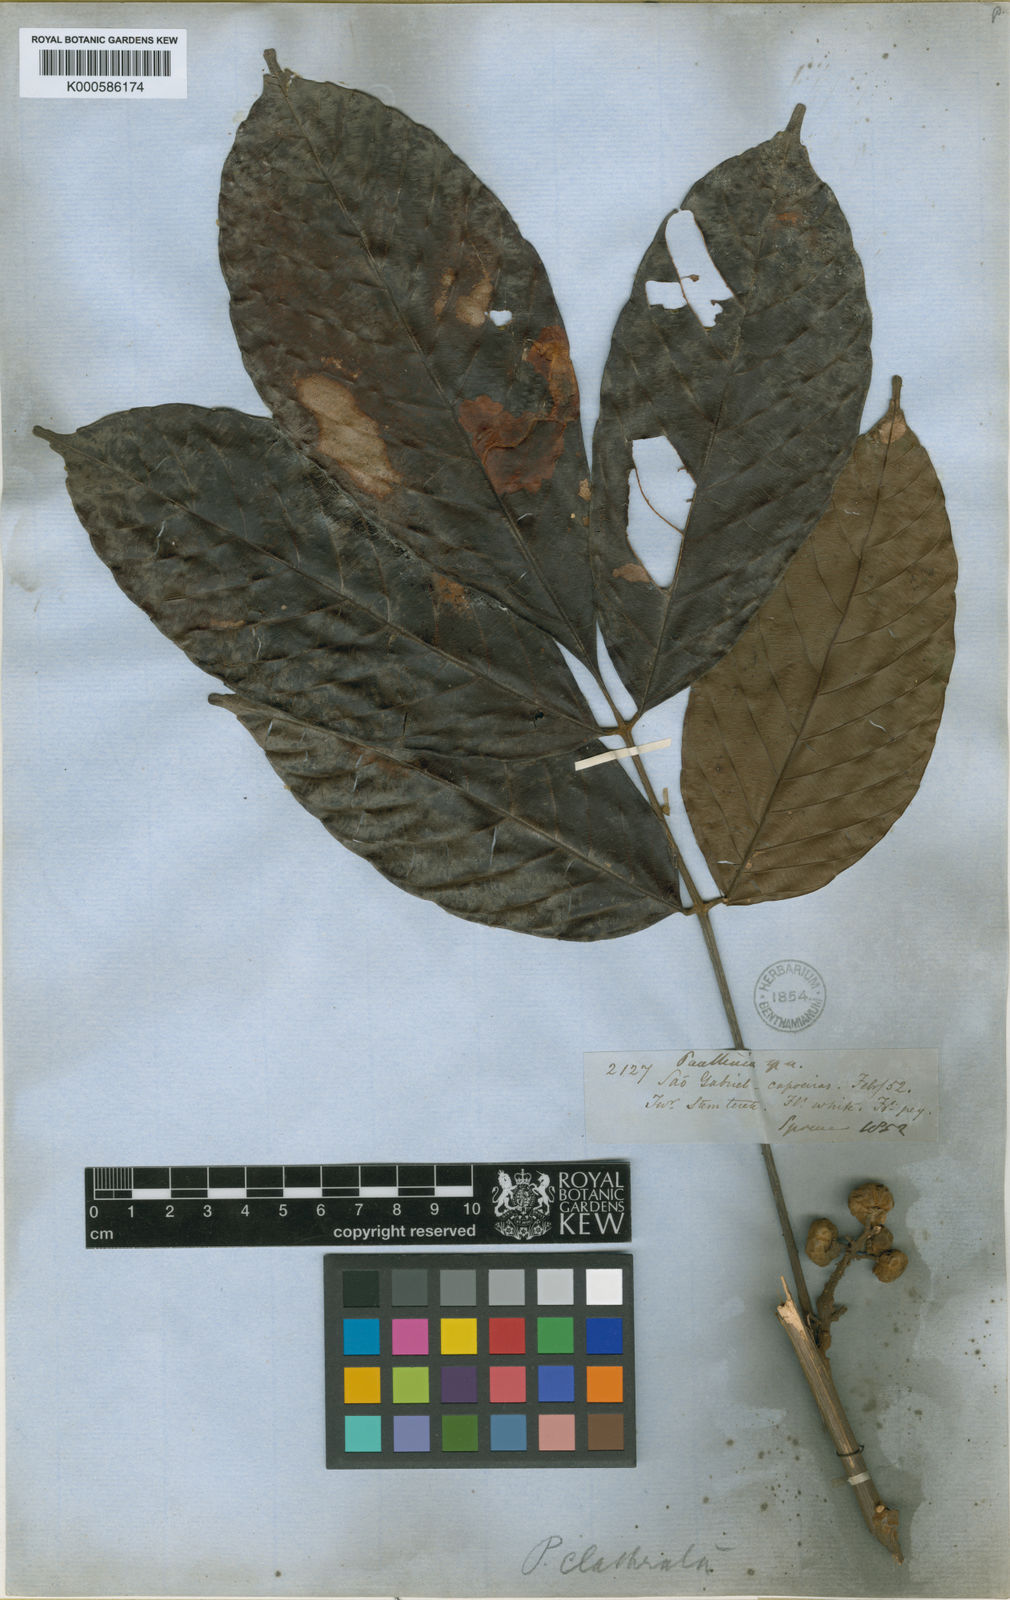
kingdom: Plantae
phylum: Tracheophyta
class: Magnoliopsida
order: Sapindales
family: Sapindaceae
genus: Paullinia
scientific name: Paullinia capreolata
